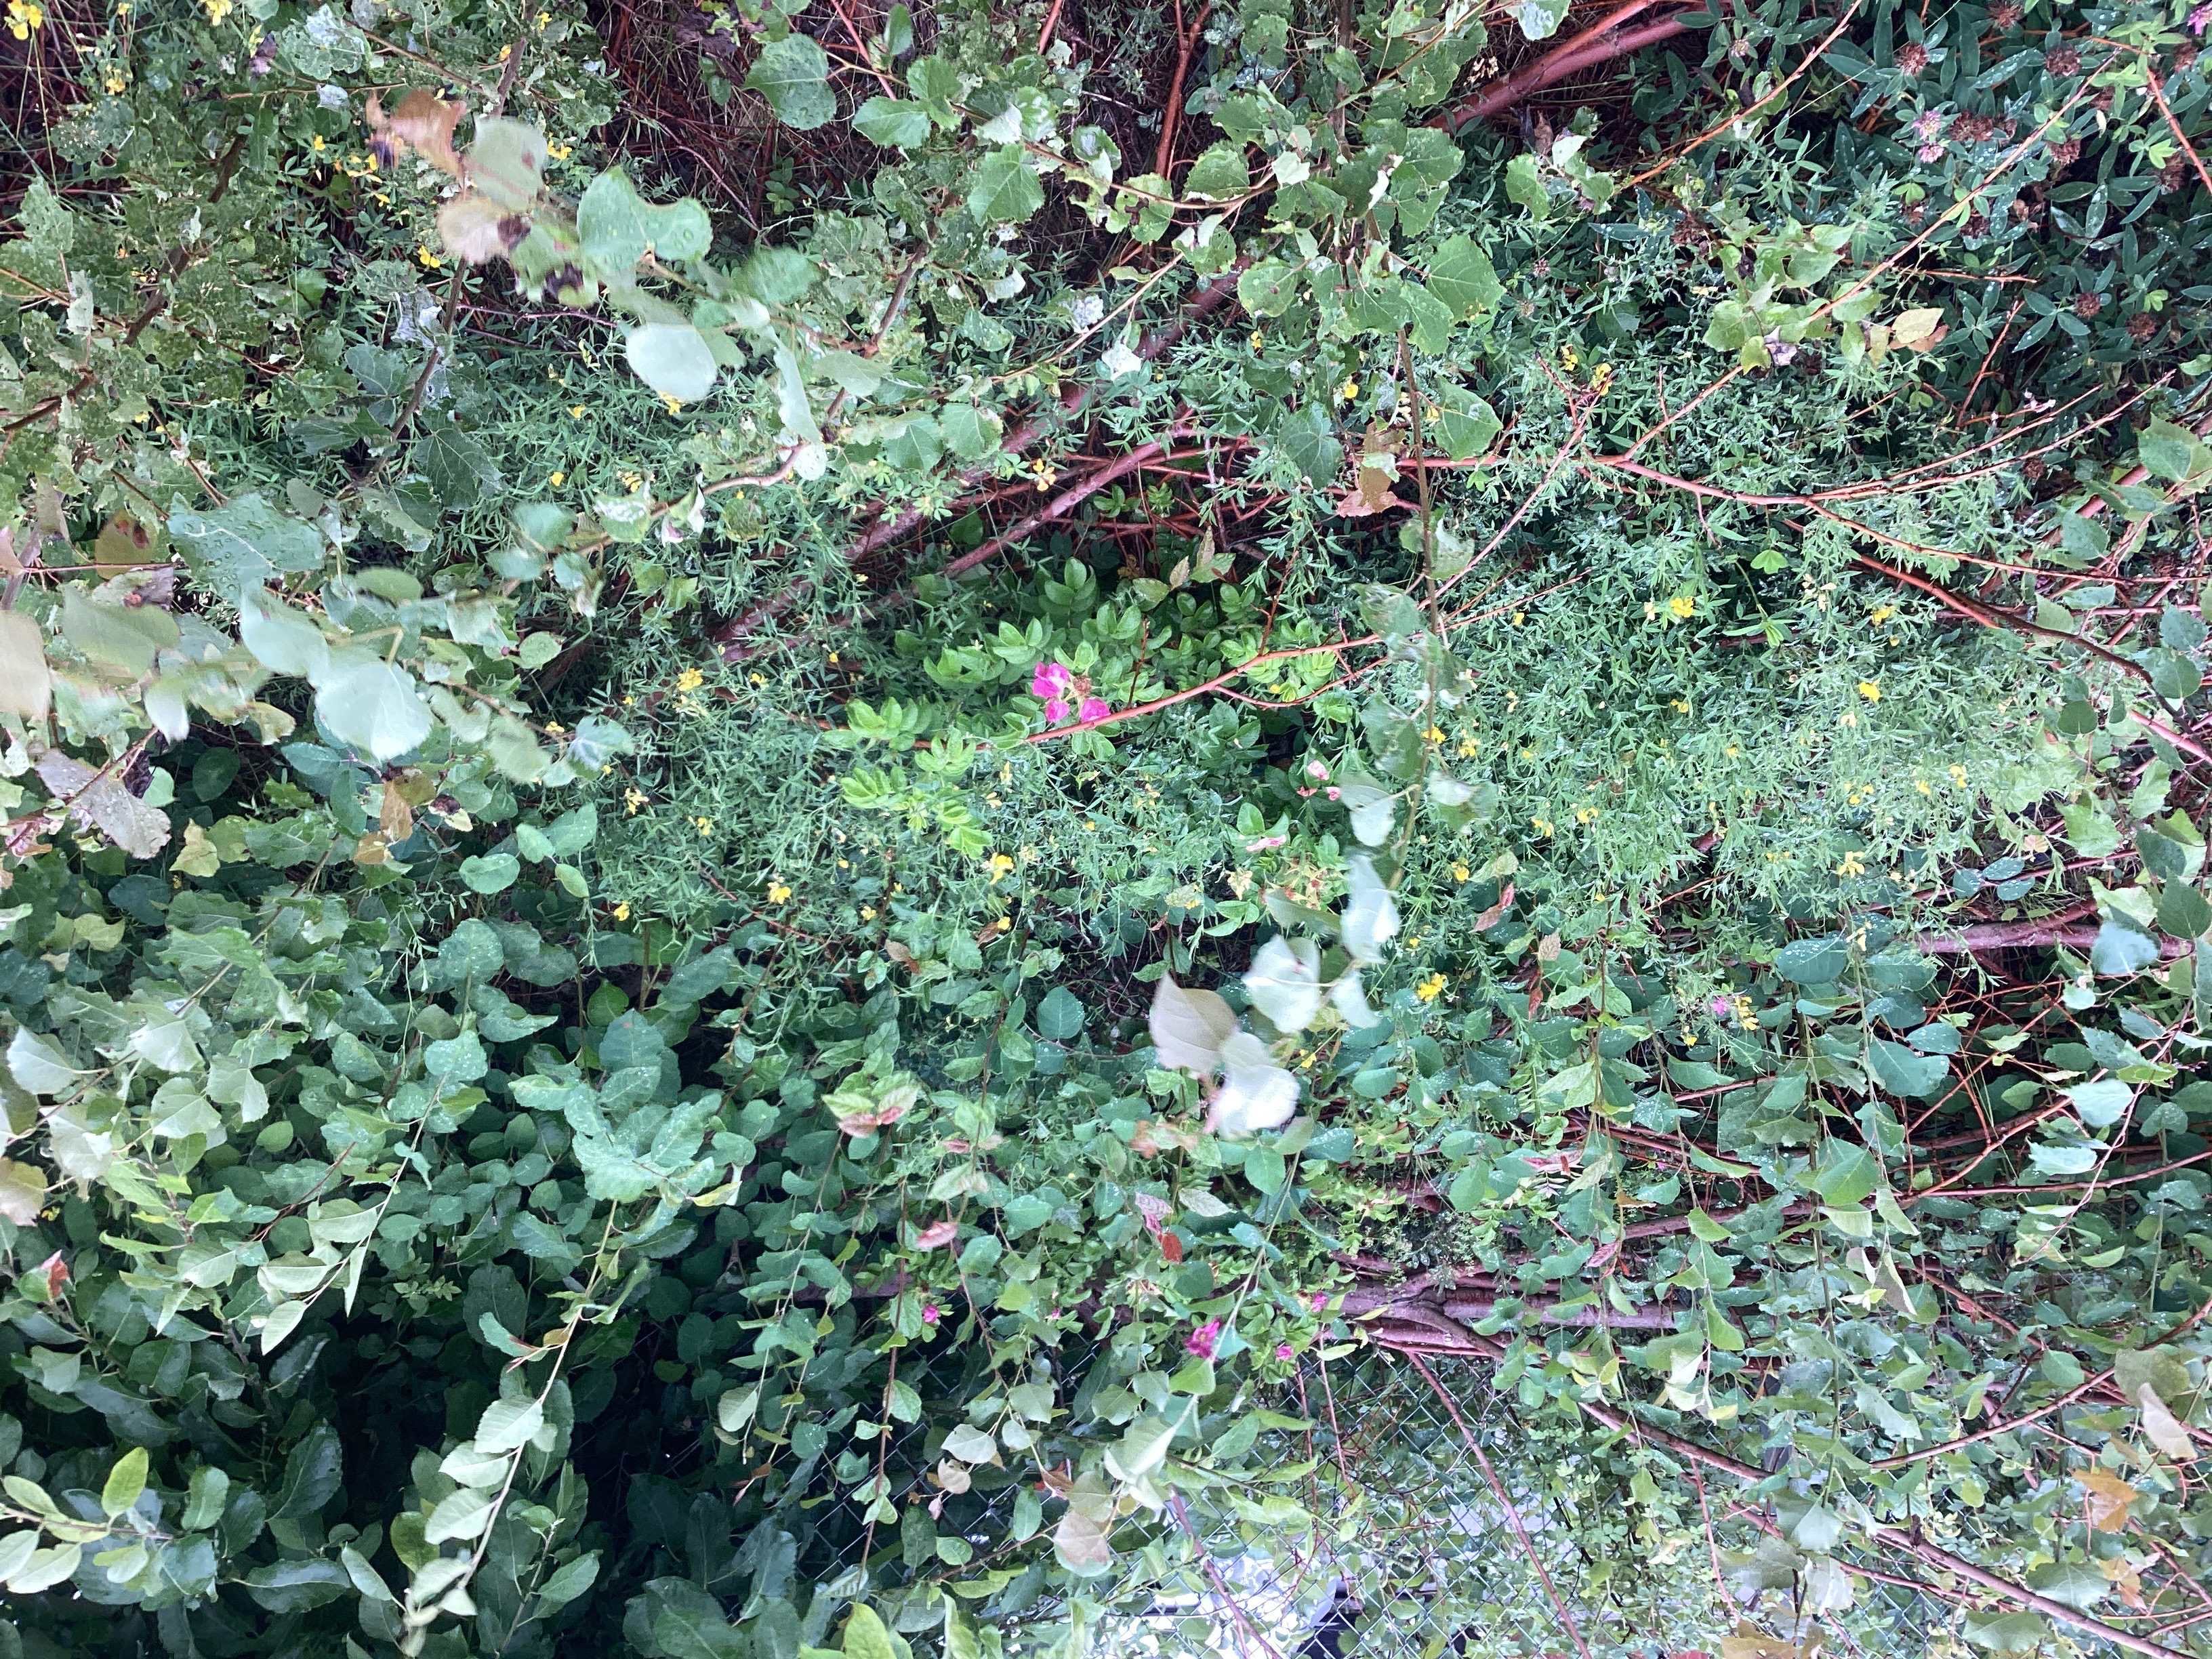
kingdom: Plantae
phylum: Tracheophyta
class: Magnoliopsida
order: Rosales
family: Rosaceae
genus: Rosa
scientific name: Rosa rugosa
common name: rynkerose
